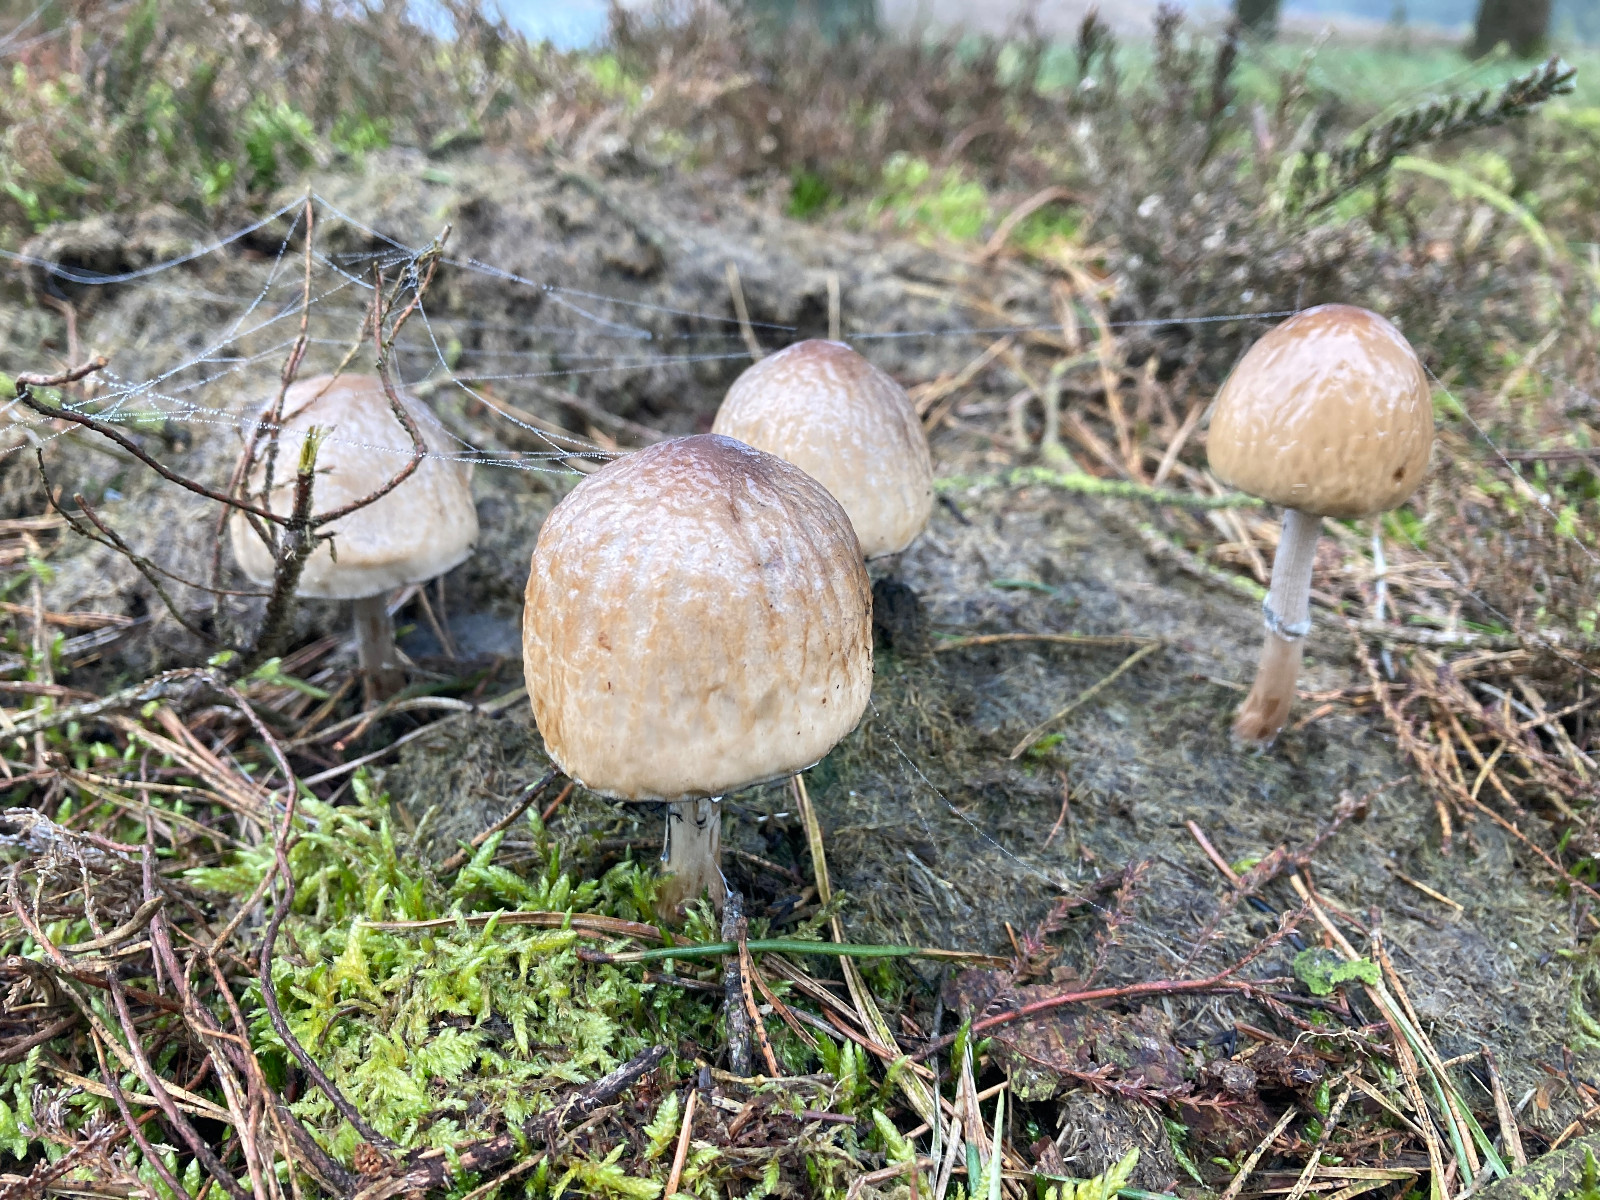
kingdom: Fungi
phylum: Basidiomycota
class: Agaricomycetes
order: Agaricales
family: Bolbitiaceae
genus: Panaeolus
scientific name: Panaeolus semiovatus
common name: ring-glanshat
